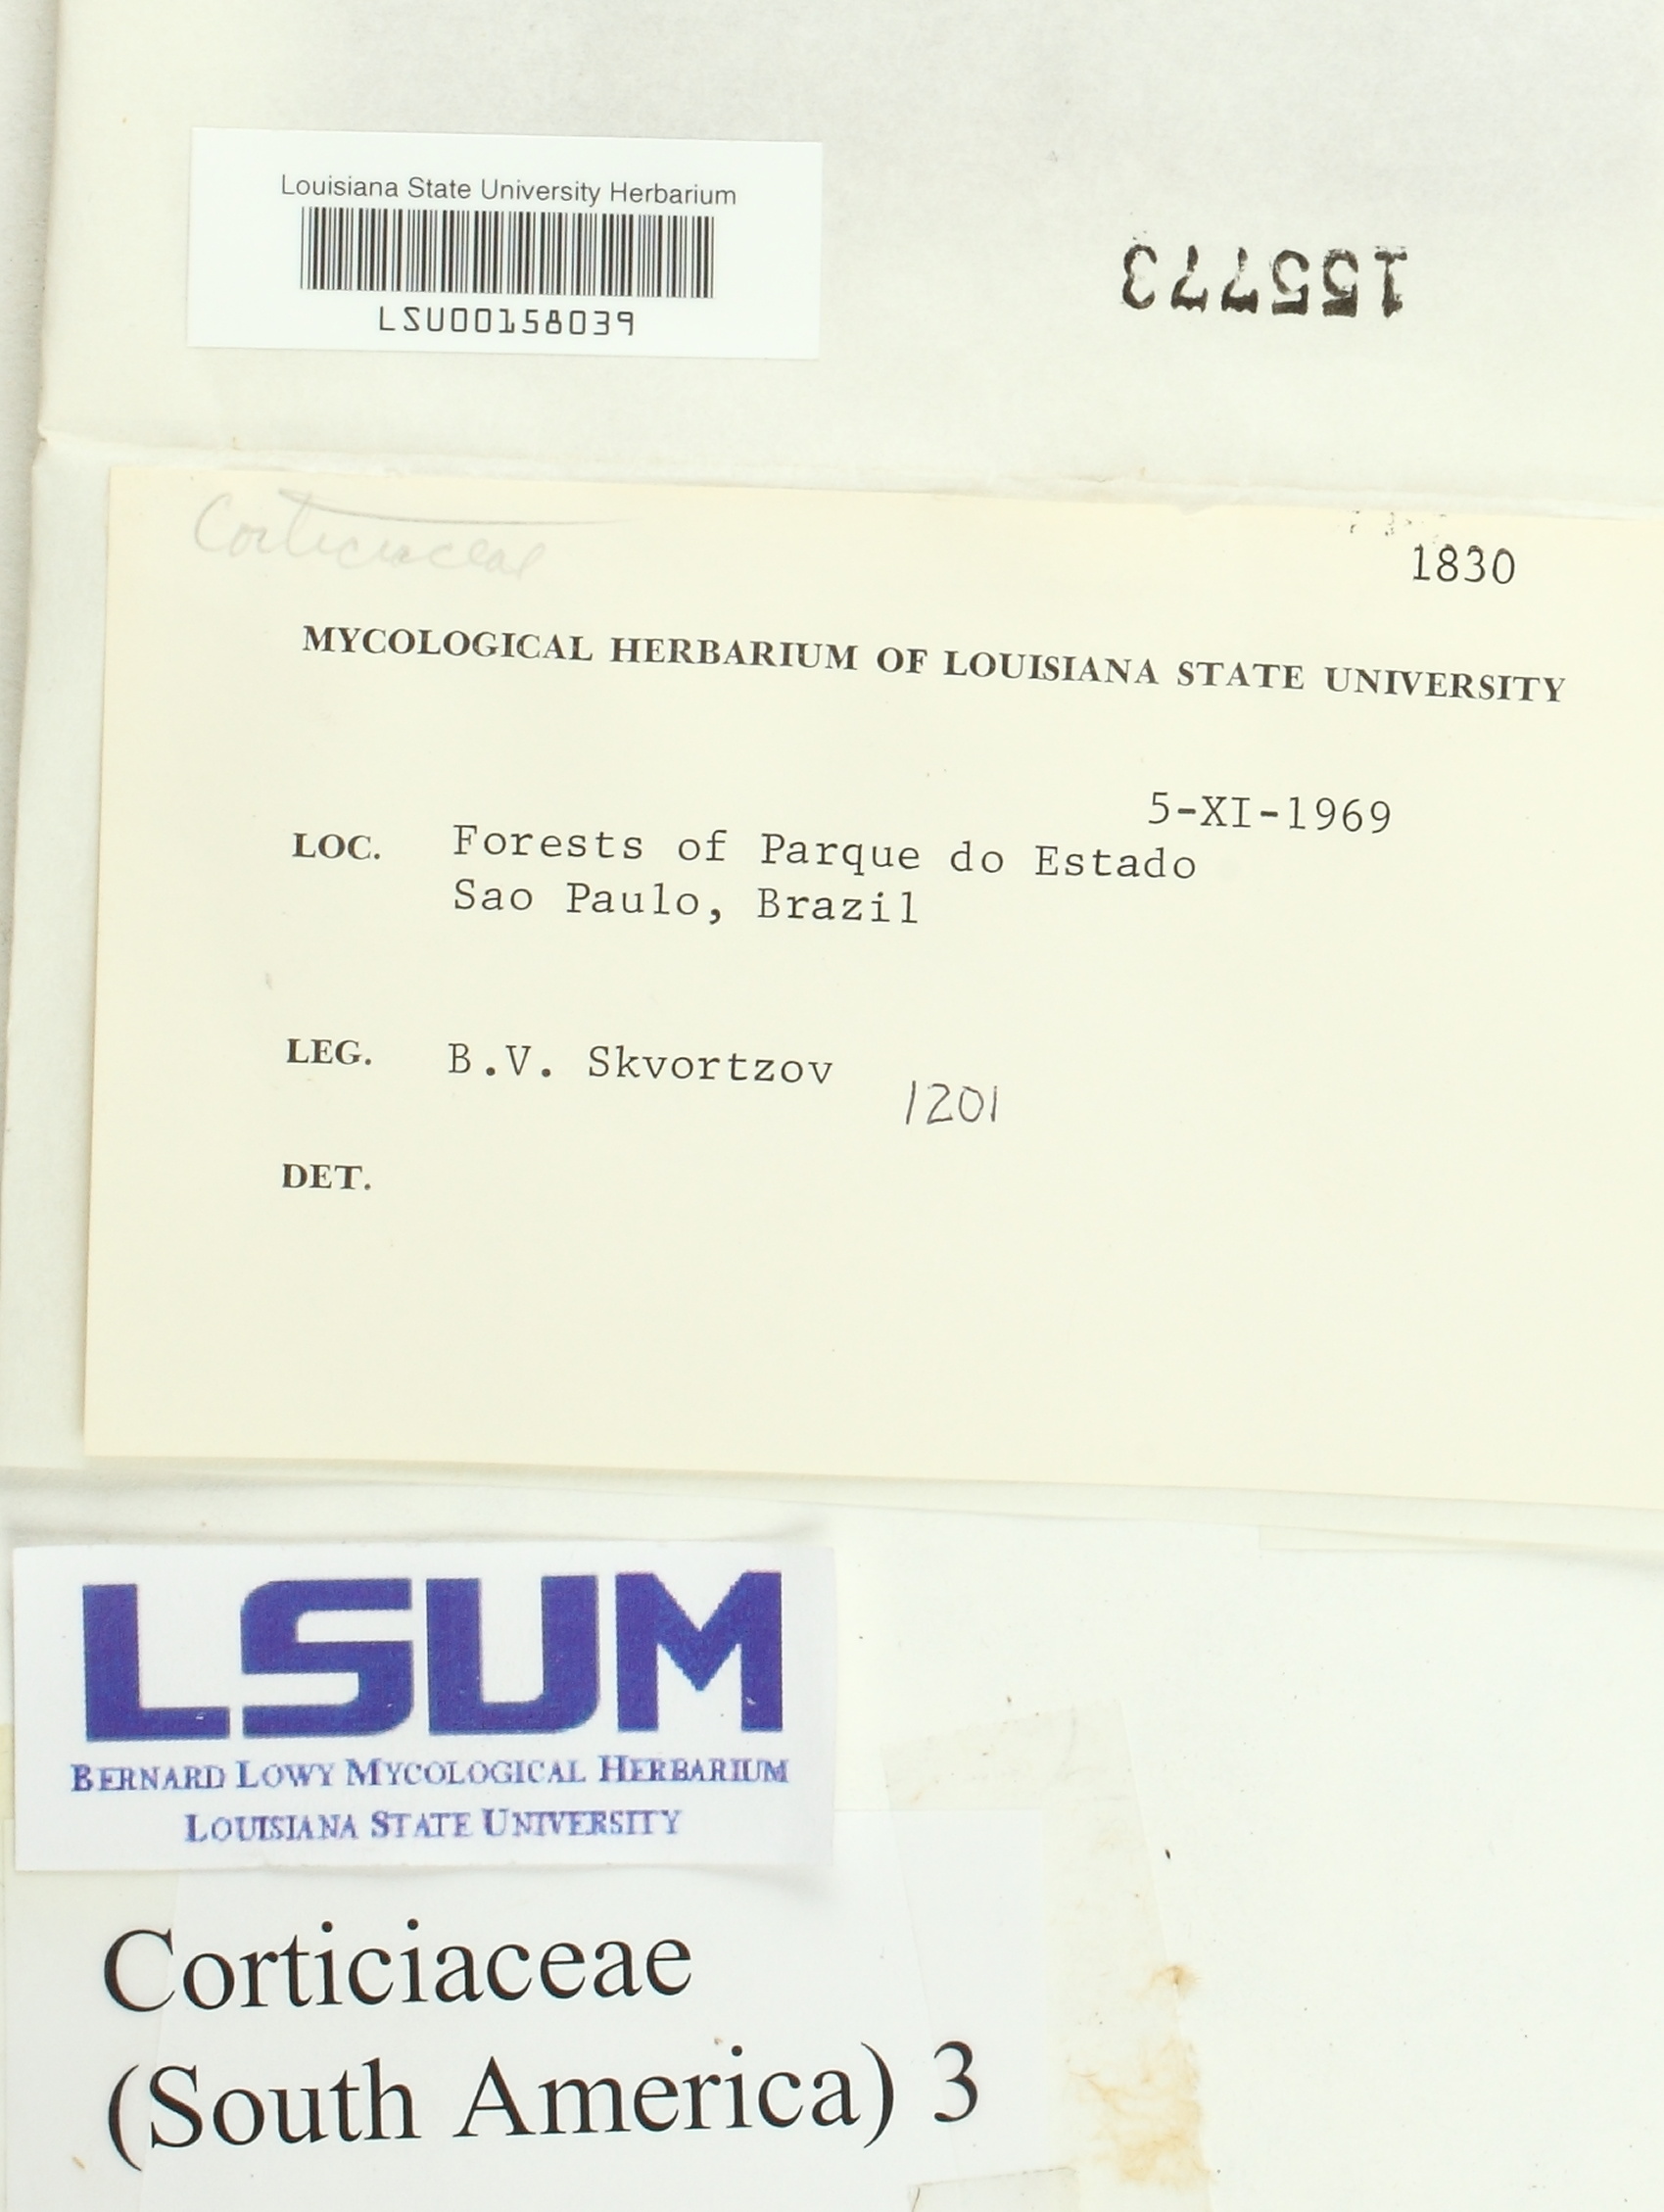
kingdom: Fungi
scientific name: Fungi
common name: Fungi
